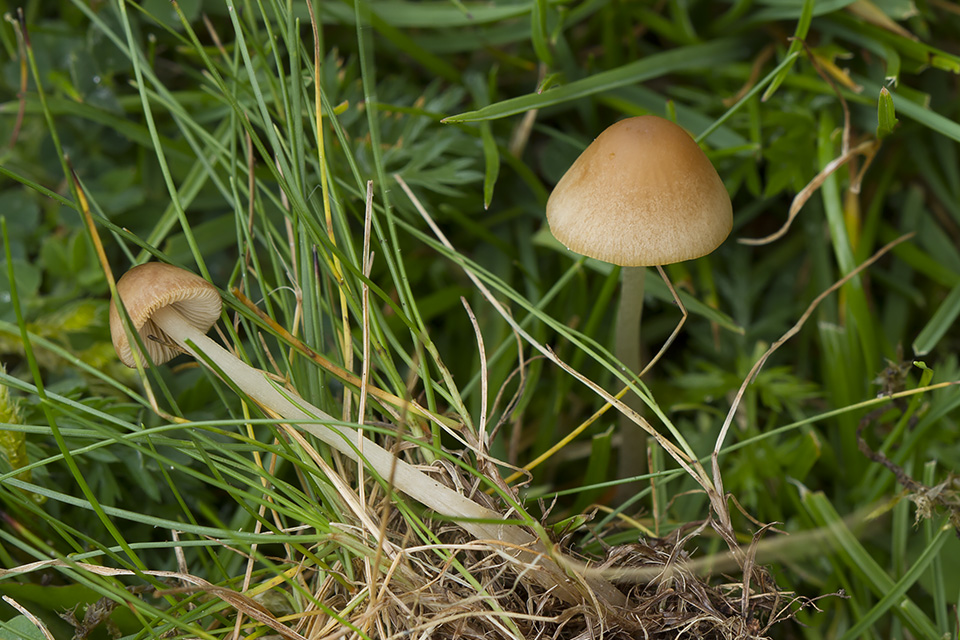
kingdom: Fungi
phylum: Basidiomycota
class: Agaricomycetes
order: Agaricales
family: Bolbitiaceae
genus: Conocybe
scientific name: Conocybe
